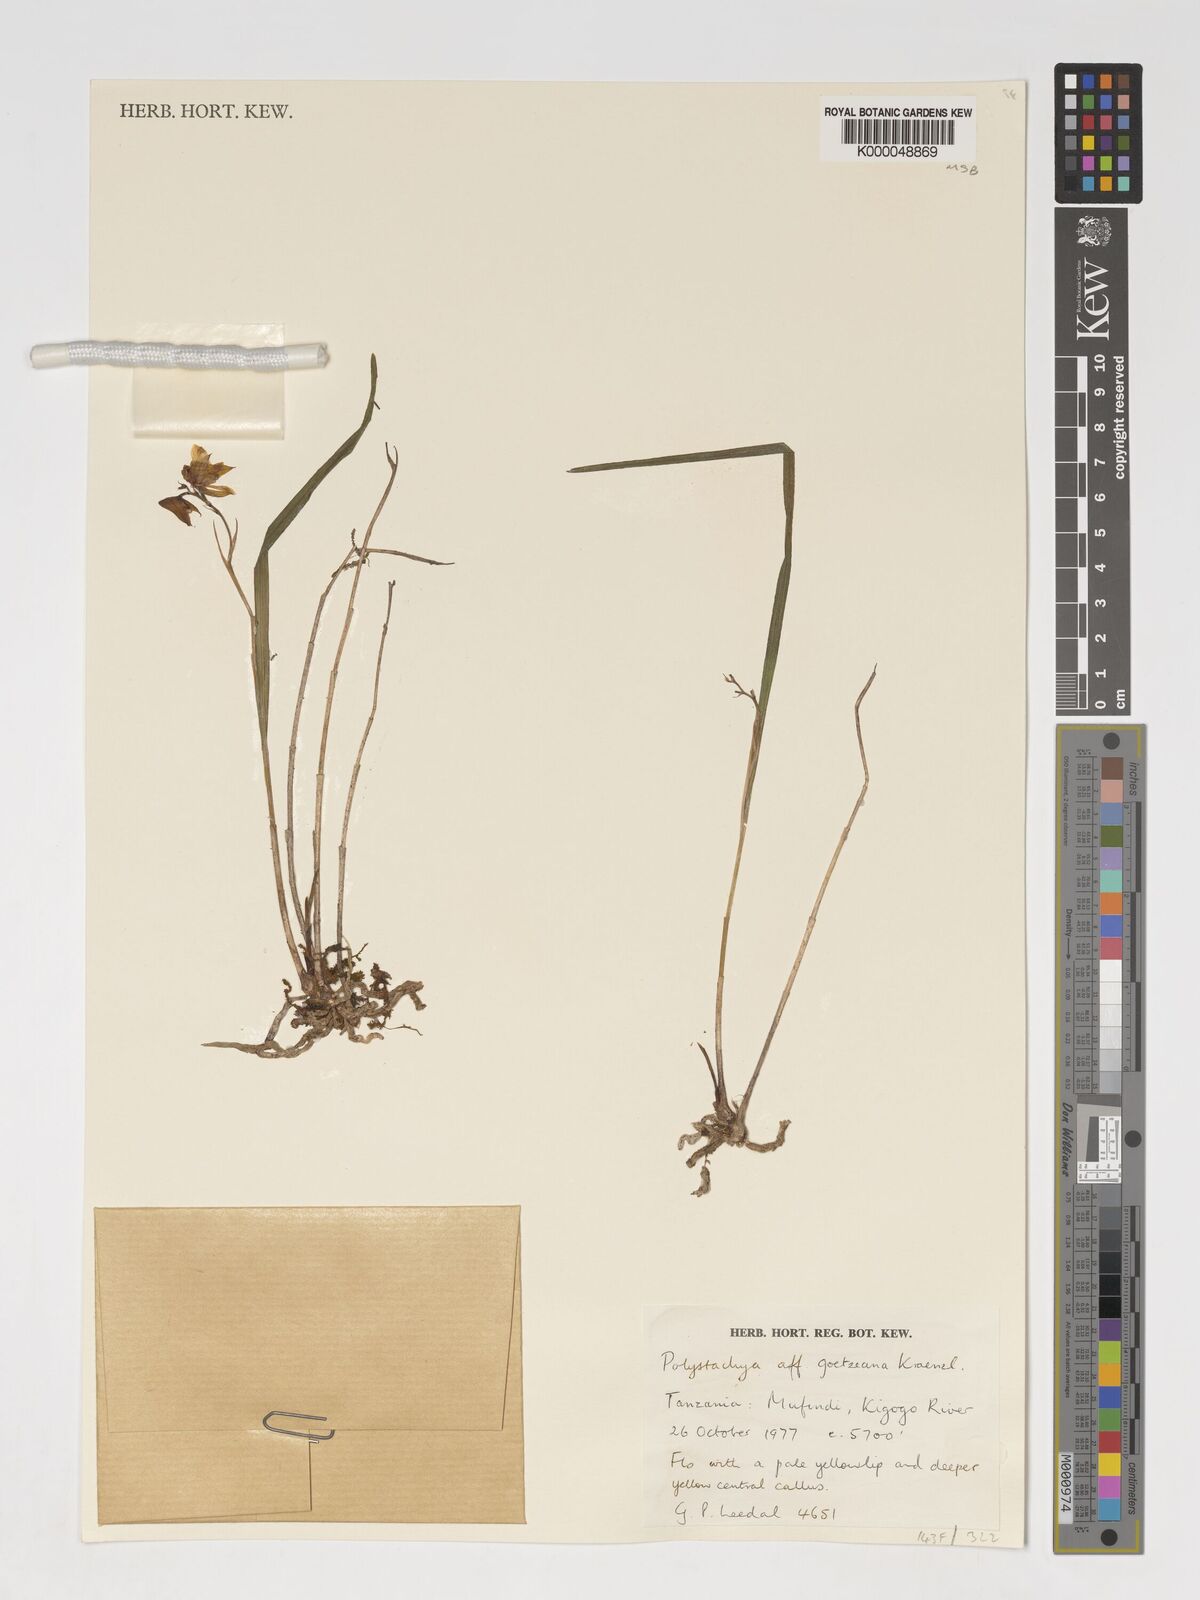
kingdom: Plantae
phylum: Tracheophyta
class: Liliopsida
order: Asparagales
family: Orchidaceae
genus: Polystachya
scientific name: Polystachya goetzeana
